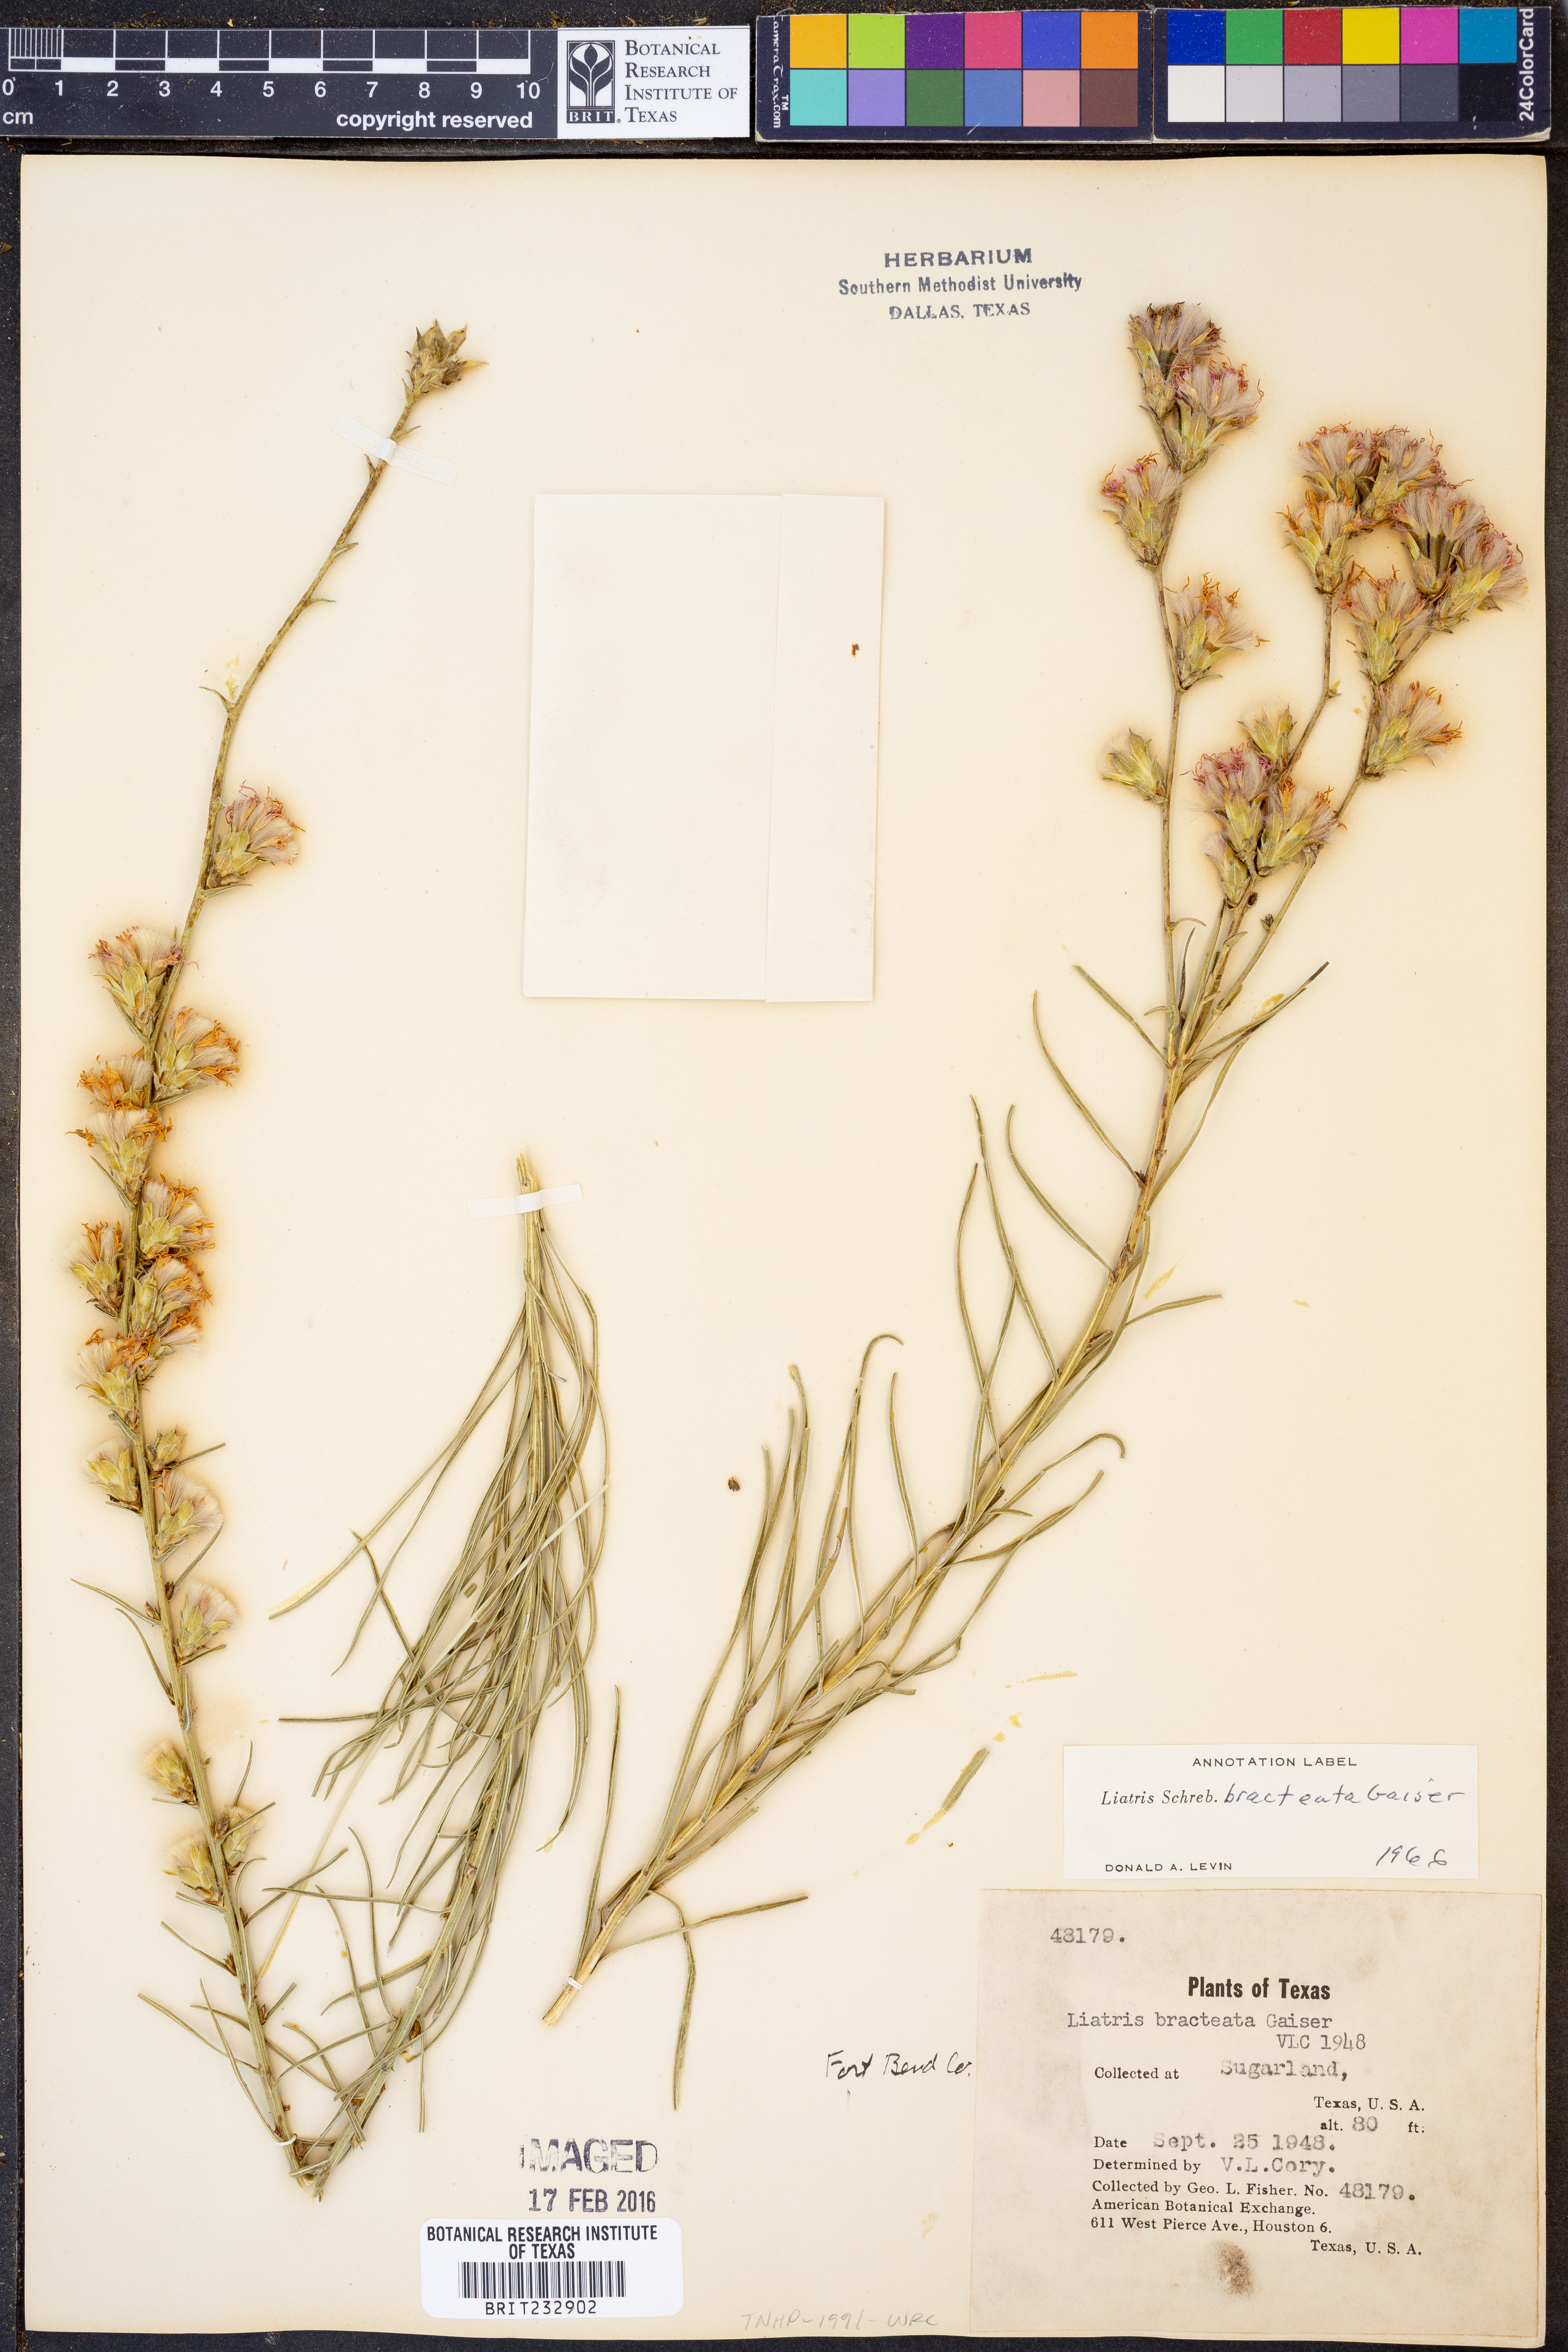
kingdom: Plantae
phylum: Tracheophyta
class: Magnoliopsida
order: Asterales
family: Asteraceae
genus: Liatris
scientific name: Liatris bracteata
